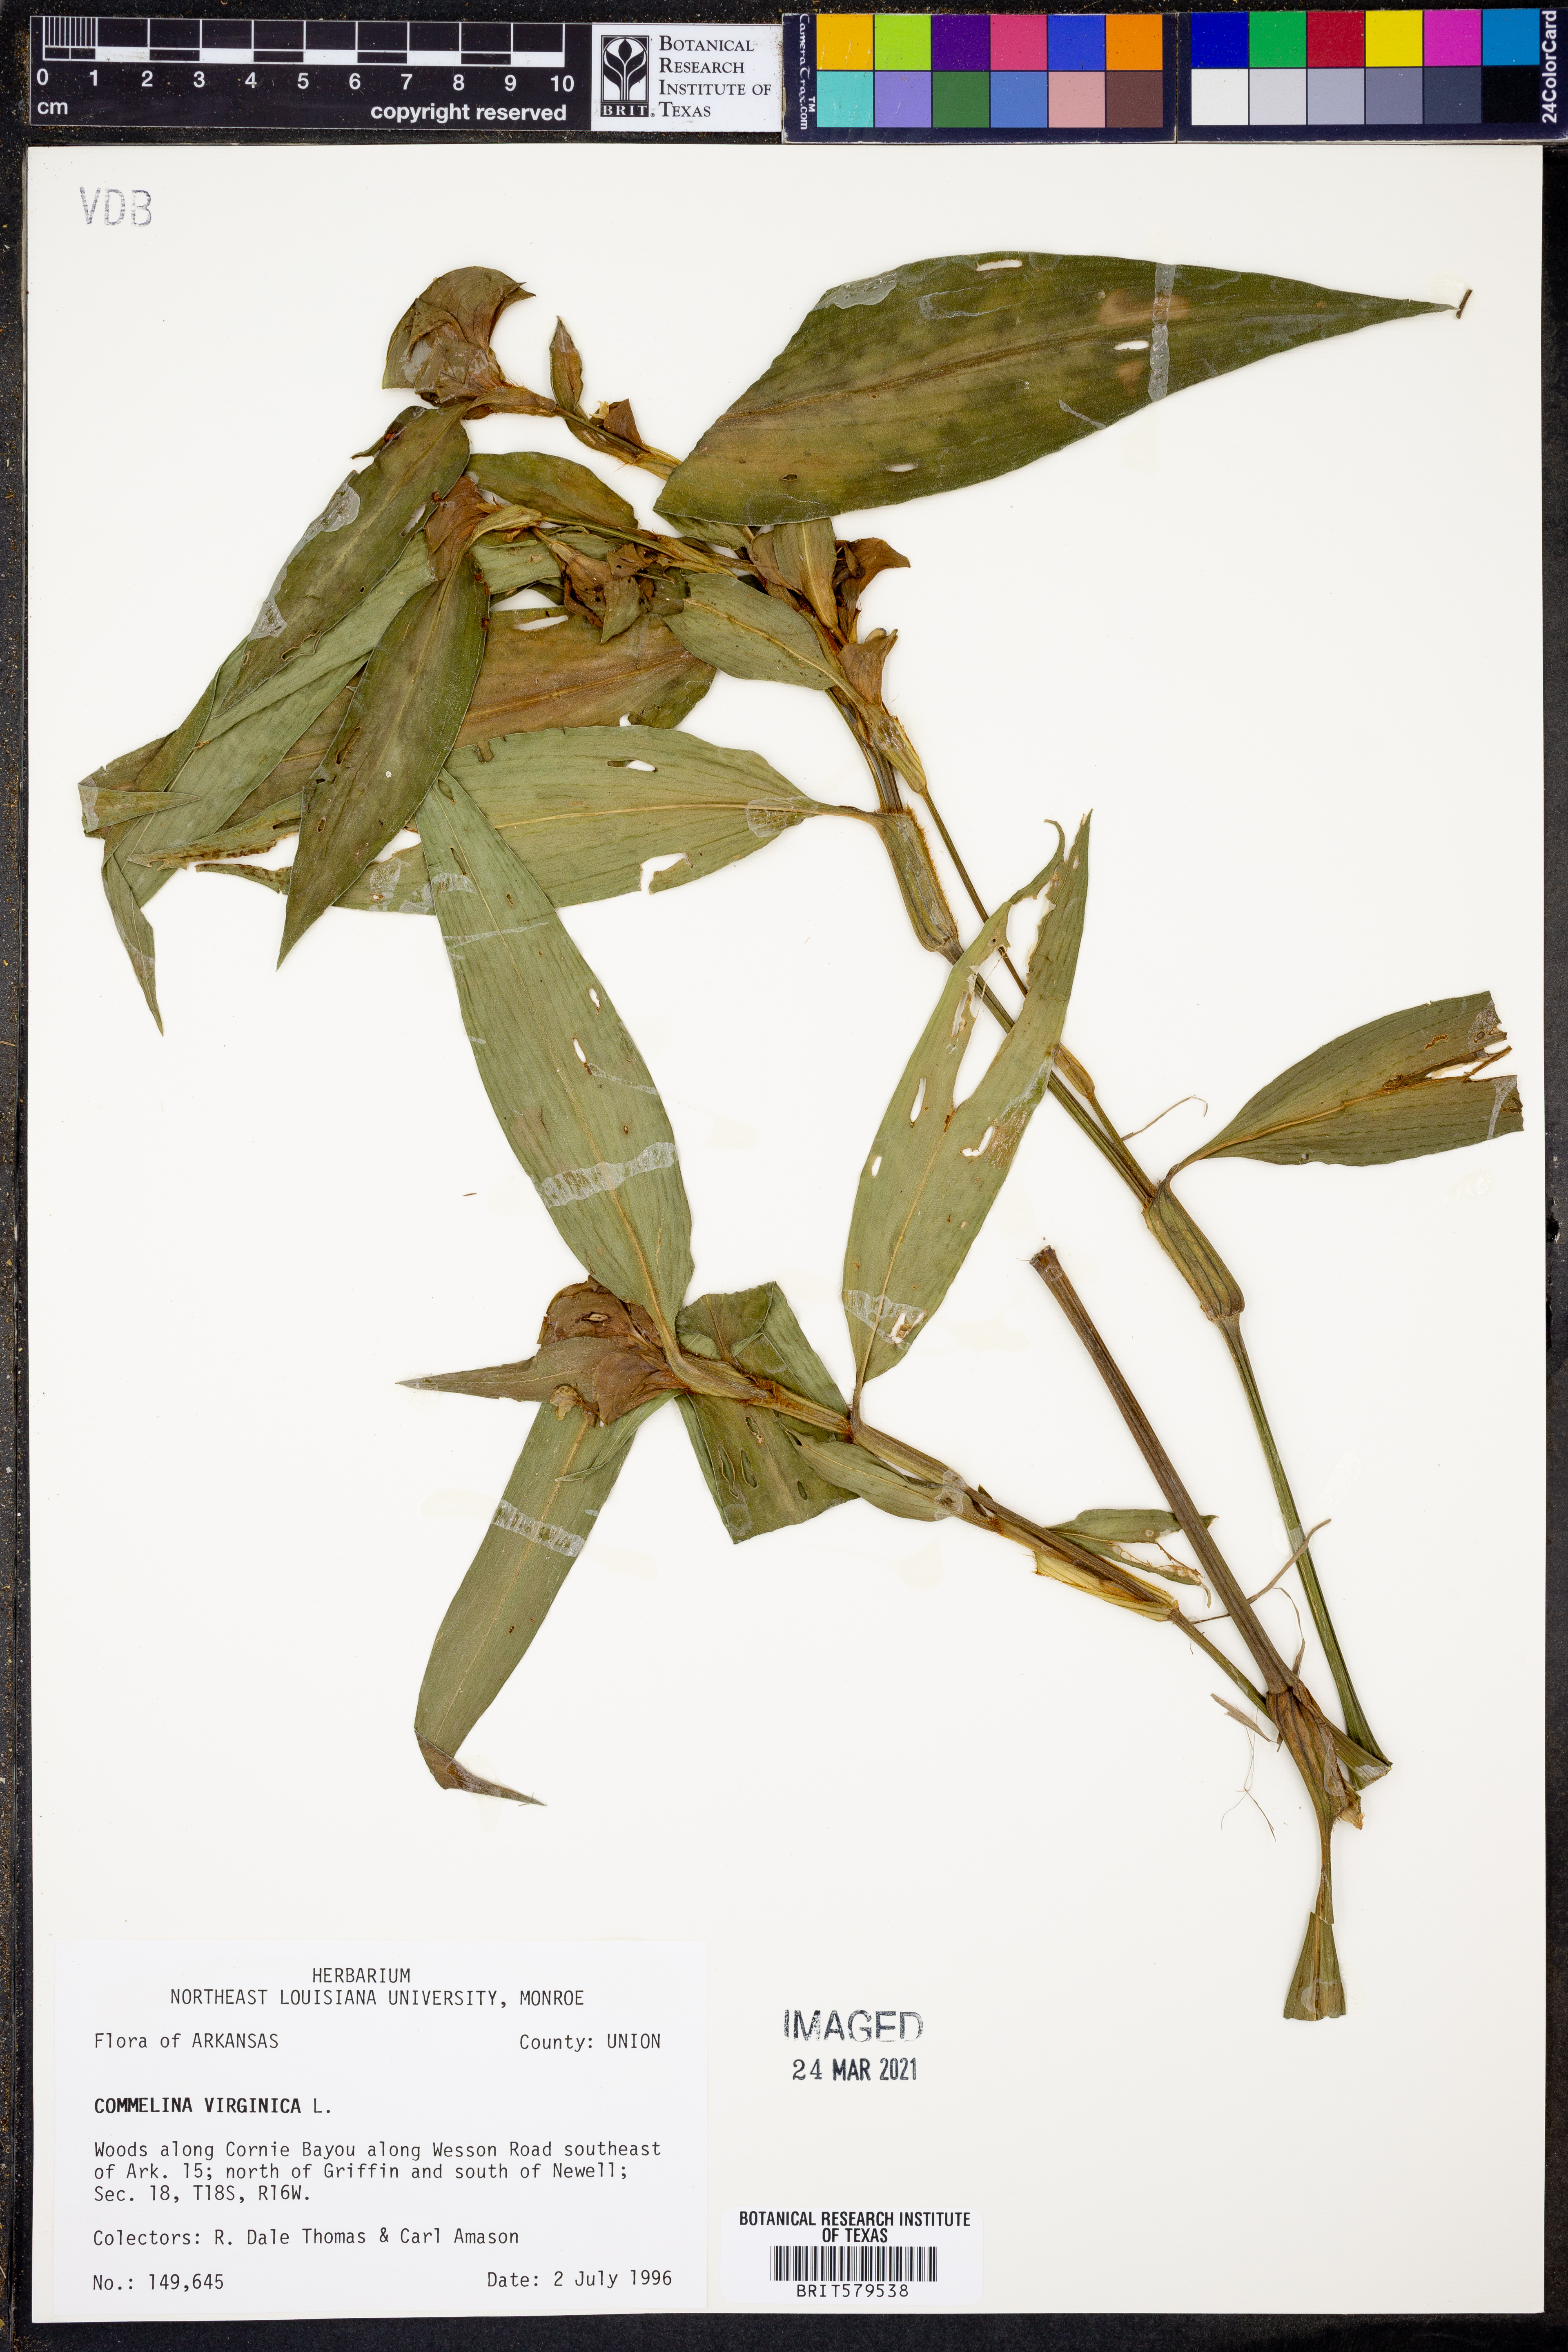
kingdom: Plantae
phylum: Tracheophyta
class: Liliopsida
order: Commelinales
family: Commelinaceae
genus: Commelina
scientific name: Commelina virginica
